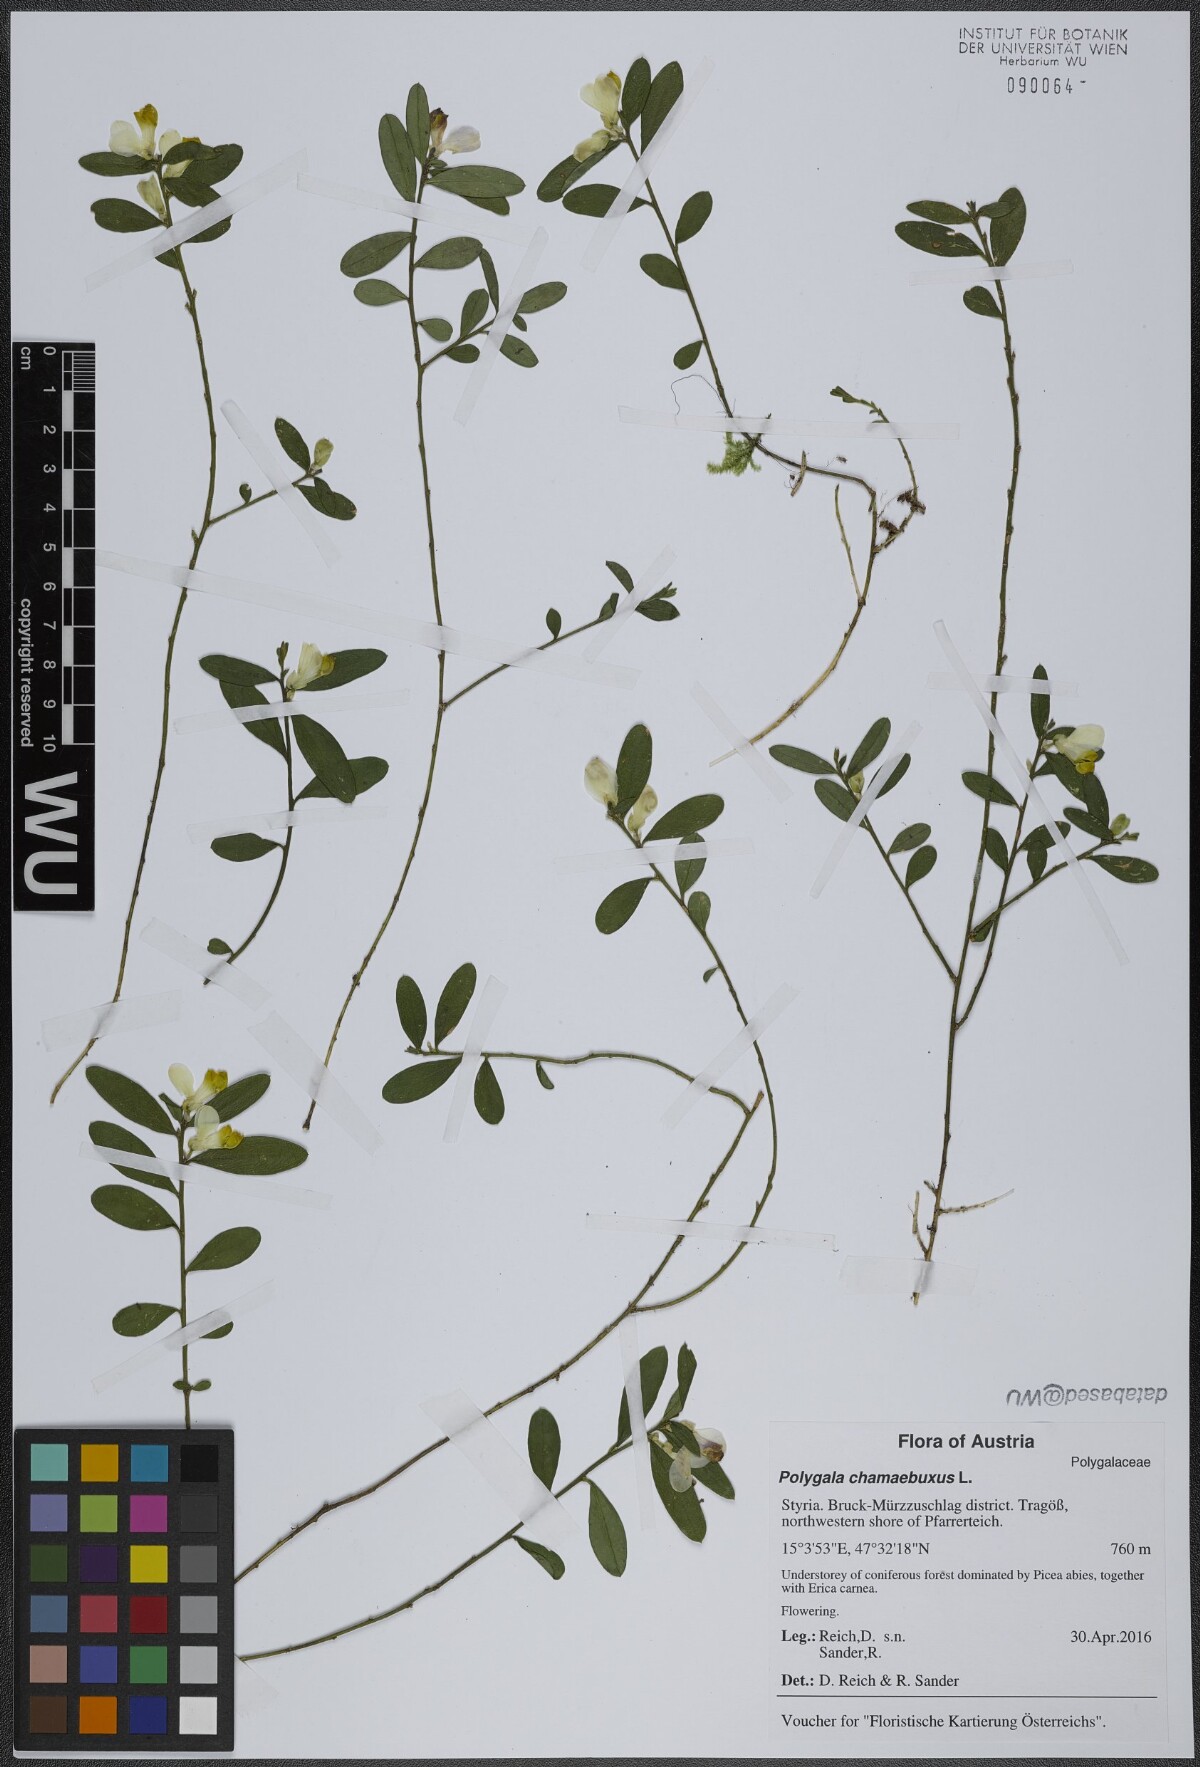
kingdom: Plantae
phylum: Tracheophyta
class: Magnoliopsida
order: Fabales
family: Polygalaceae
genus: Polygaloides
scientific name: Polygaloides chamaebuxus
